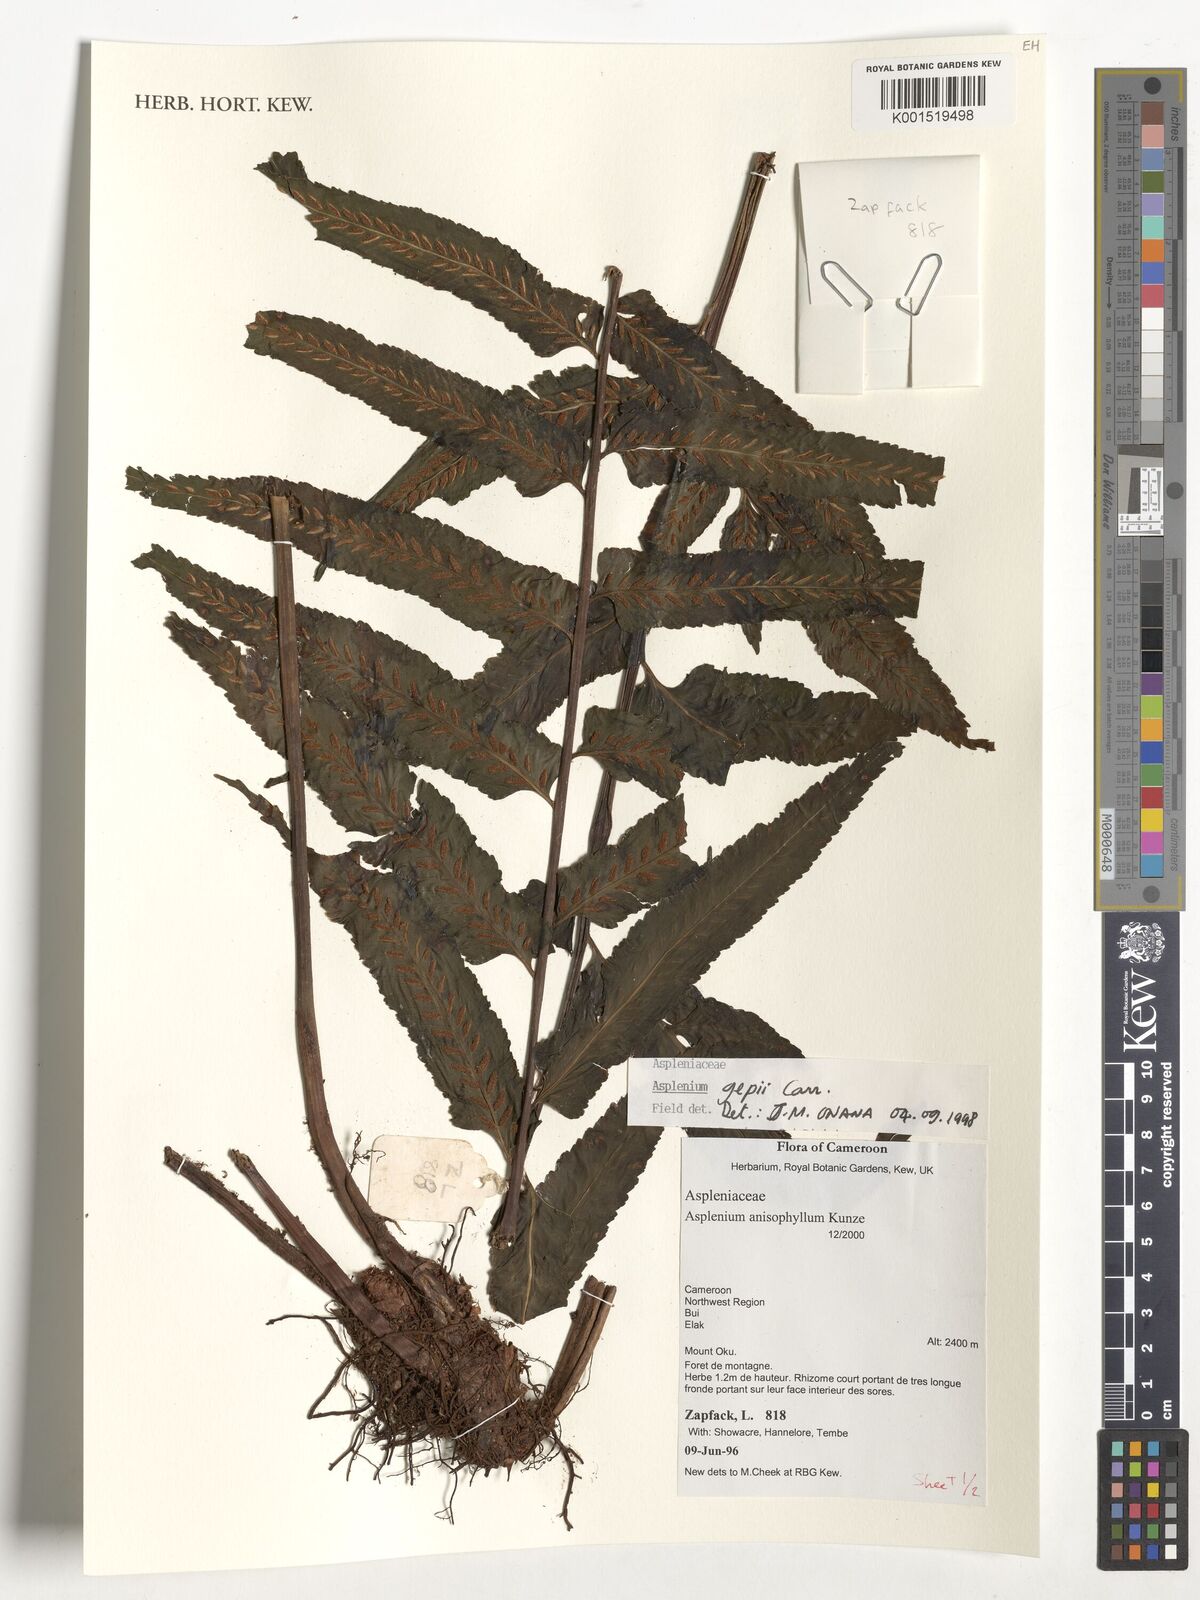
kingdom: Plantae
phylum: Tracheophyta
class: Polypodiopsida
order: Polypodiales
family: Aspleniaceae
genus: Asplenium
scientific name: Asplenium anisophyllum
